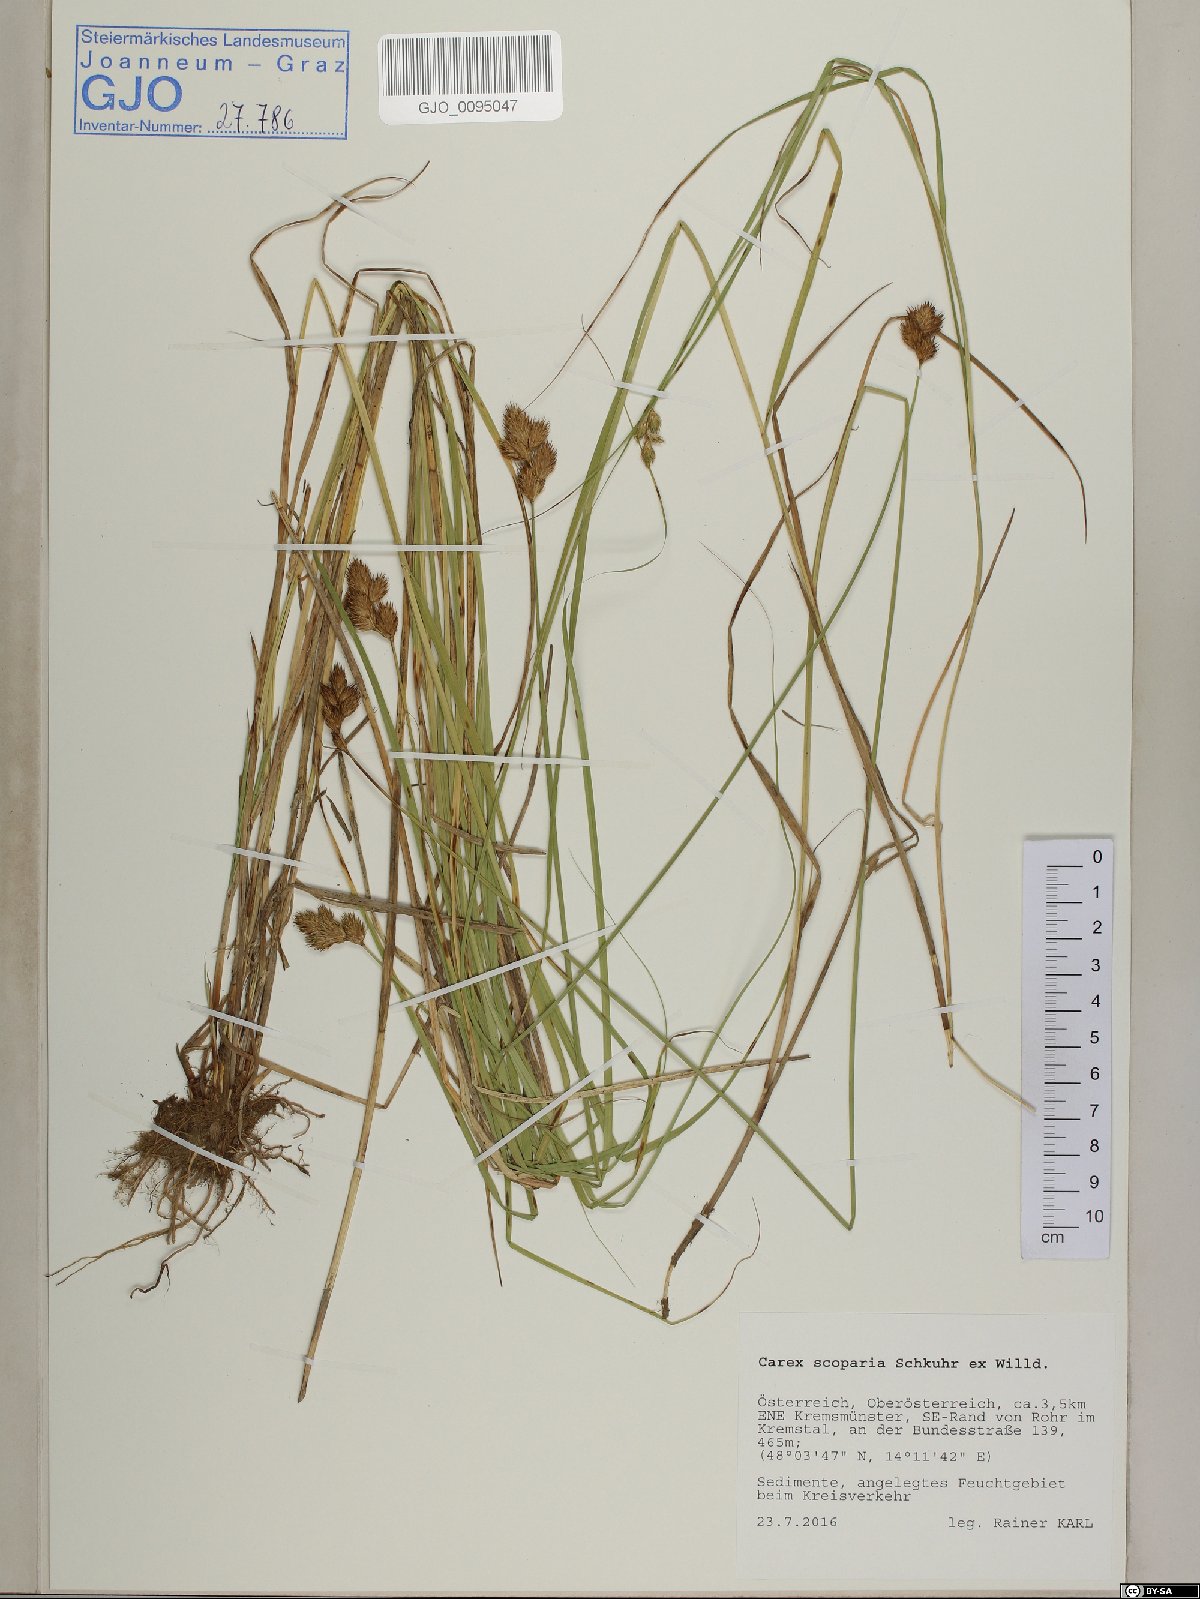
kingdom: Plantae
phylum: Tracheophyta
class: Liliopsida
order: Poales
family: Cyperaceae
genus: Carex
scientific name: Carex scoparia
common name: Broom sedge
